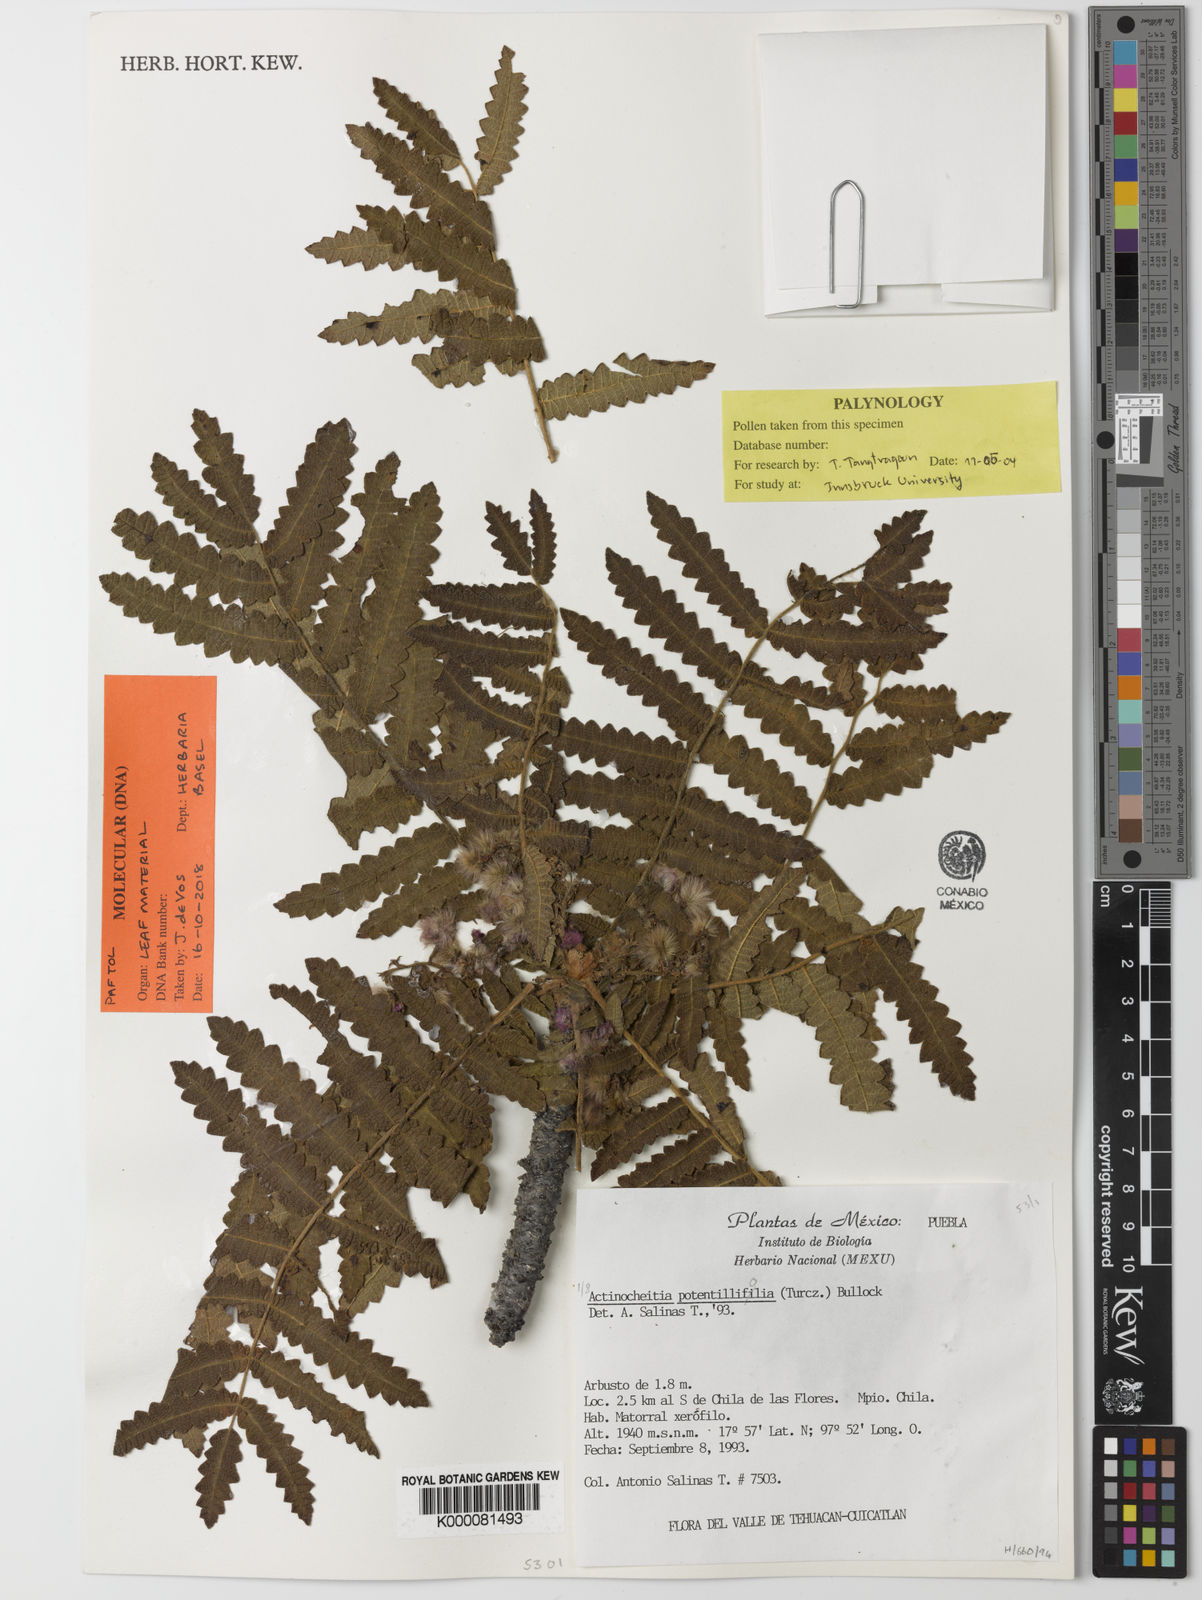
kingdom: Plantae
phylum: Tracheophyta
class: Magnoliopsida
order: Sapindales
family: Anacardiaceae
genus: Actinocheita
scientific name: Actinocheita filicina
